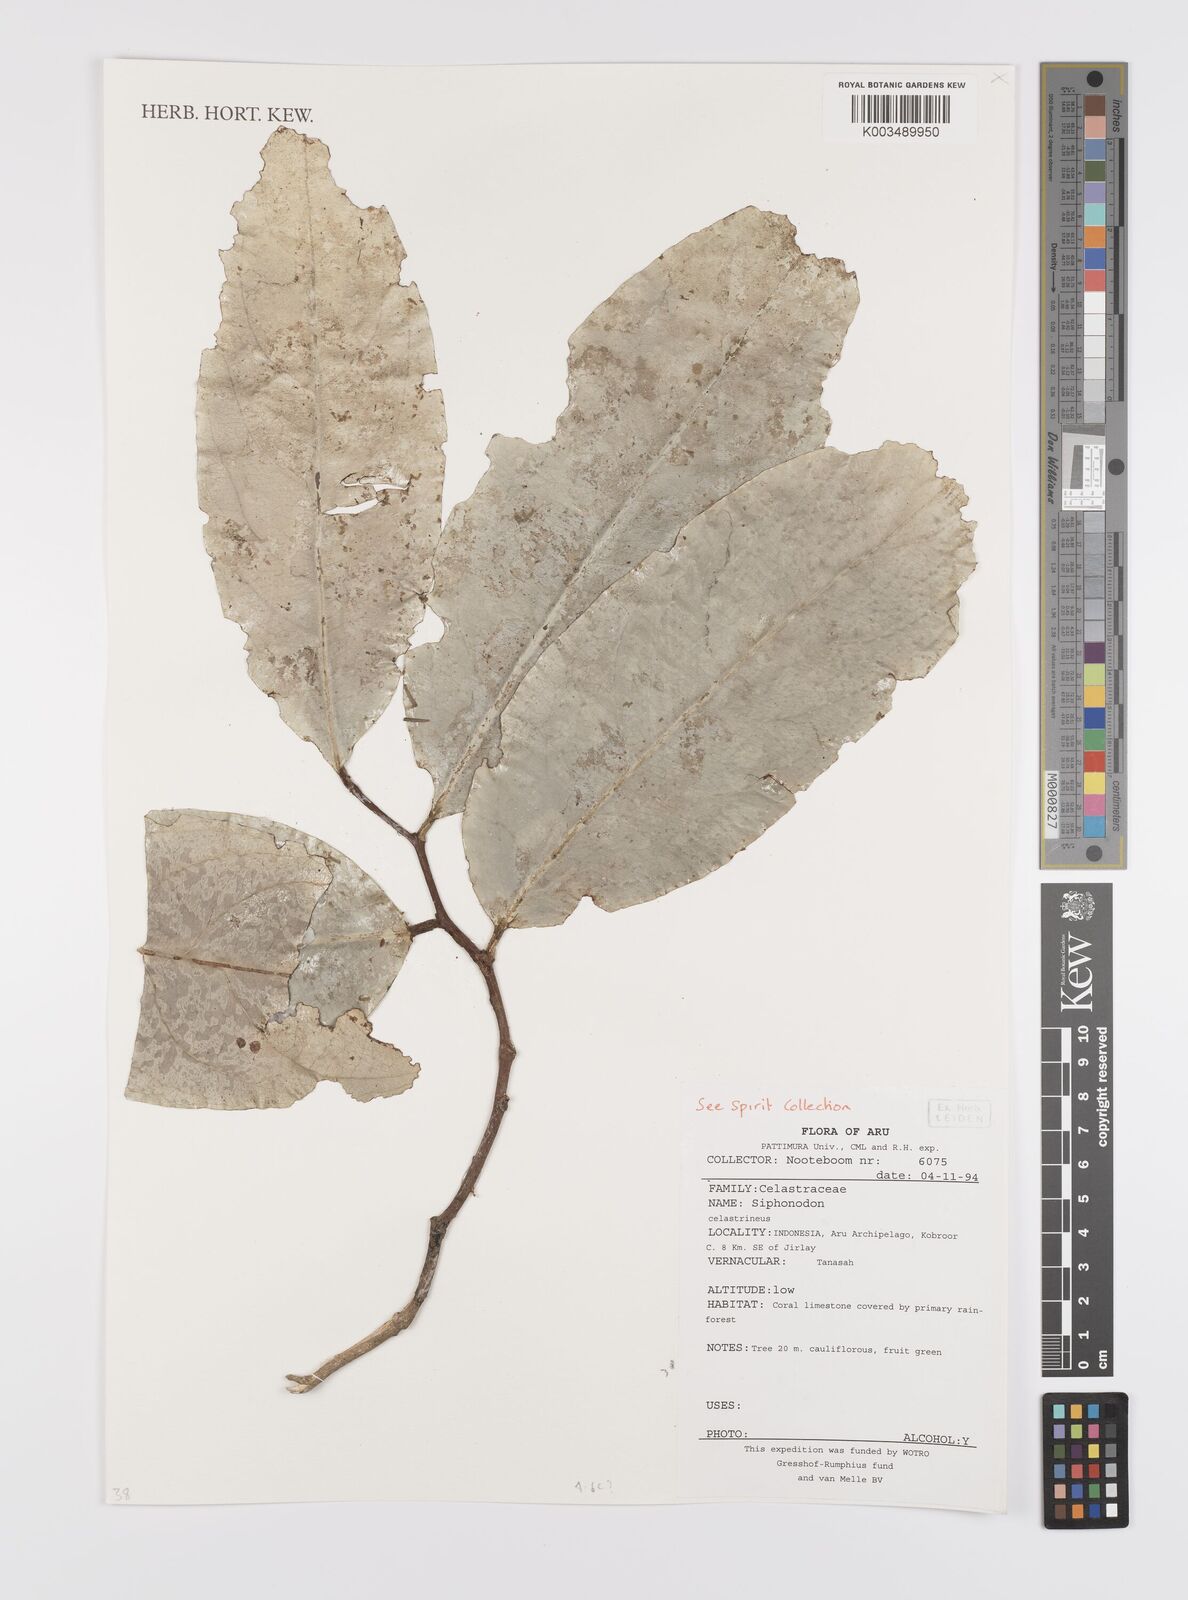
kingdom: Plantae
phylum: Tracheophyta
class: Magnoliopsida
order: Celastrales
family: Celastraceae
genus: Siphonodon
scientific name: Siphonodon celastrineus
